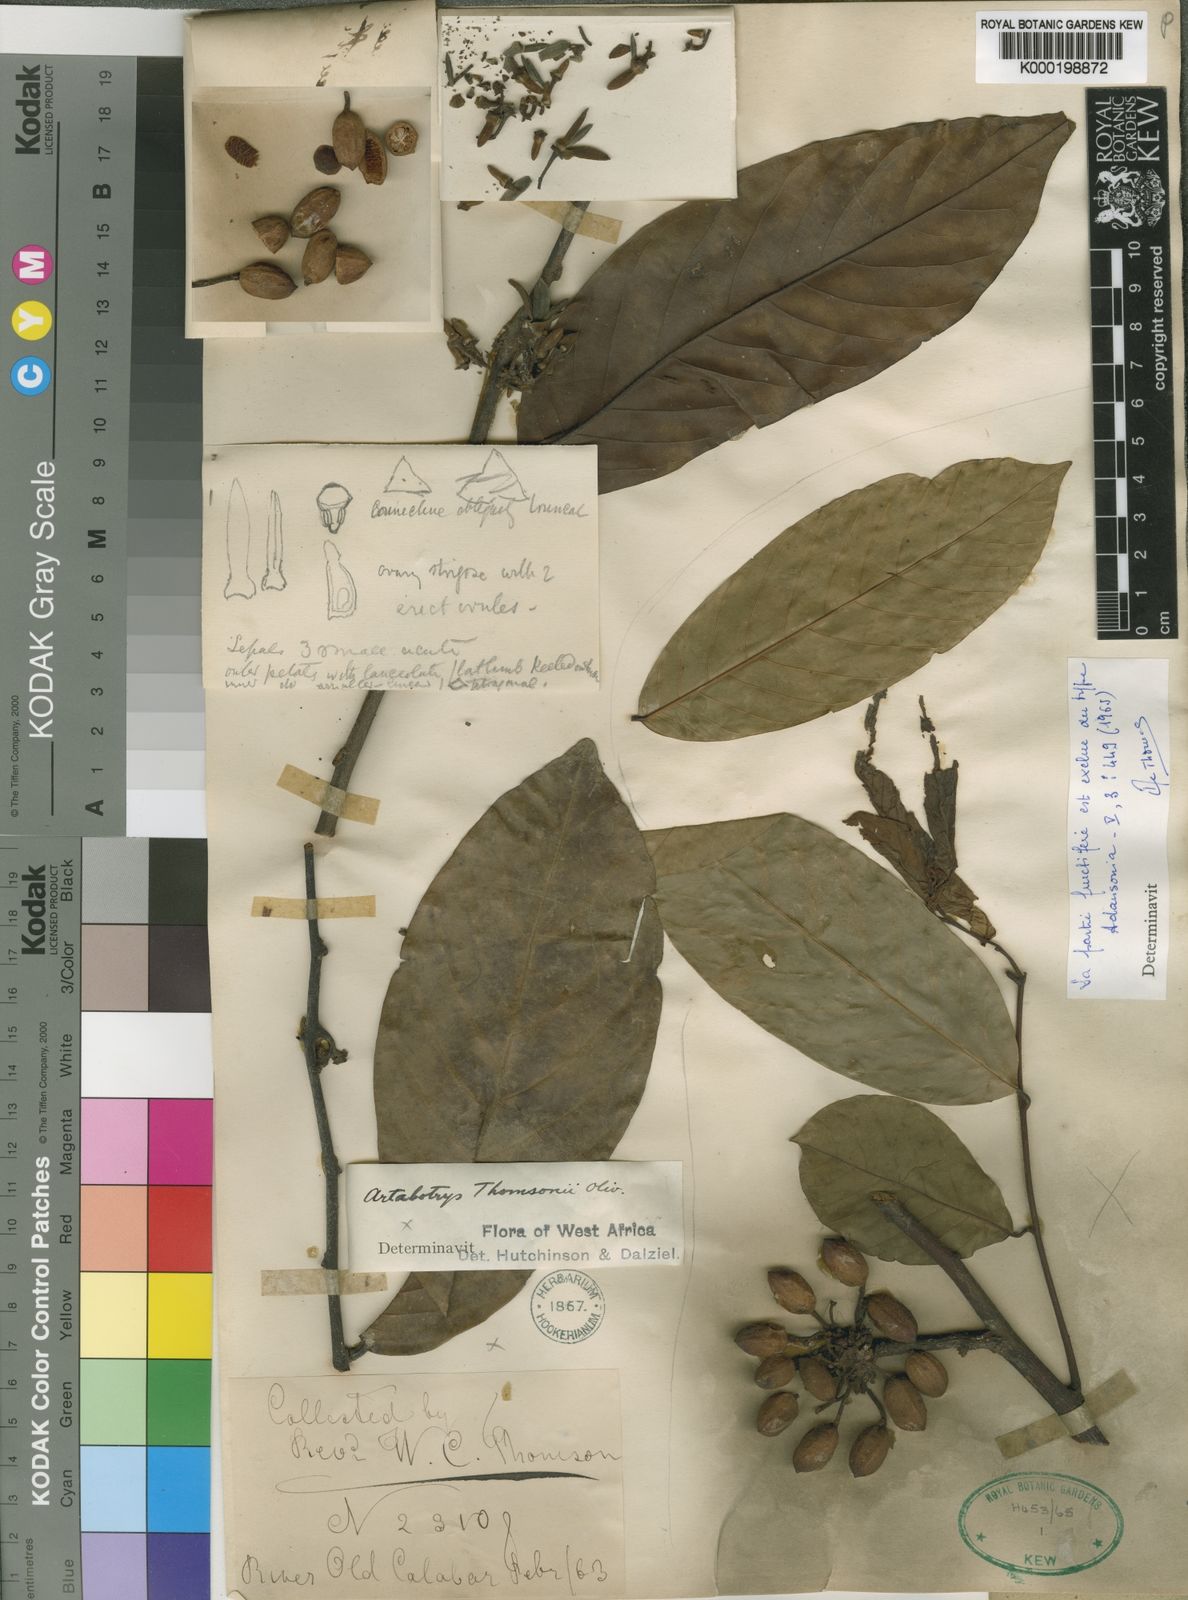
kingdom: Plantae
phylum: Tracheophyta
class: Magnoliopsida
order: Magnoliales
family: Annonaceae
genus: Artabotrys
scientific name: Artabotrys thomsonii
